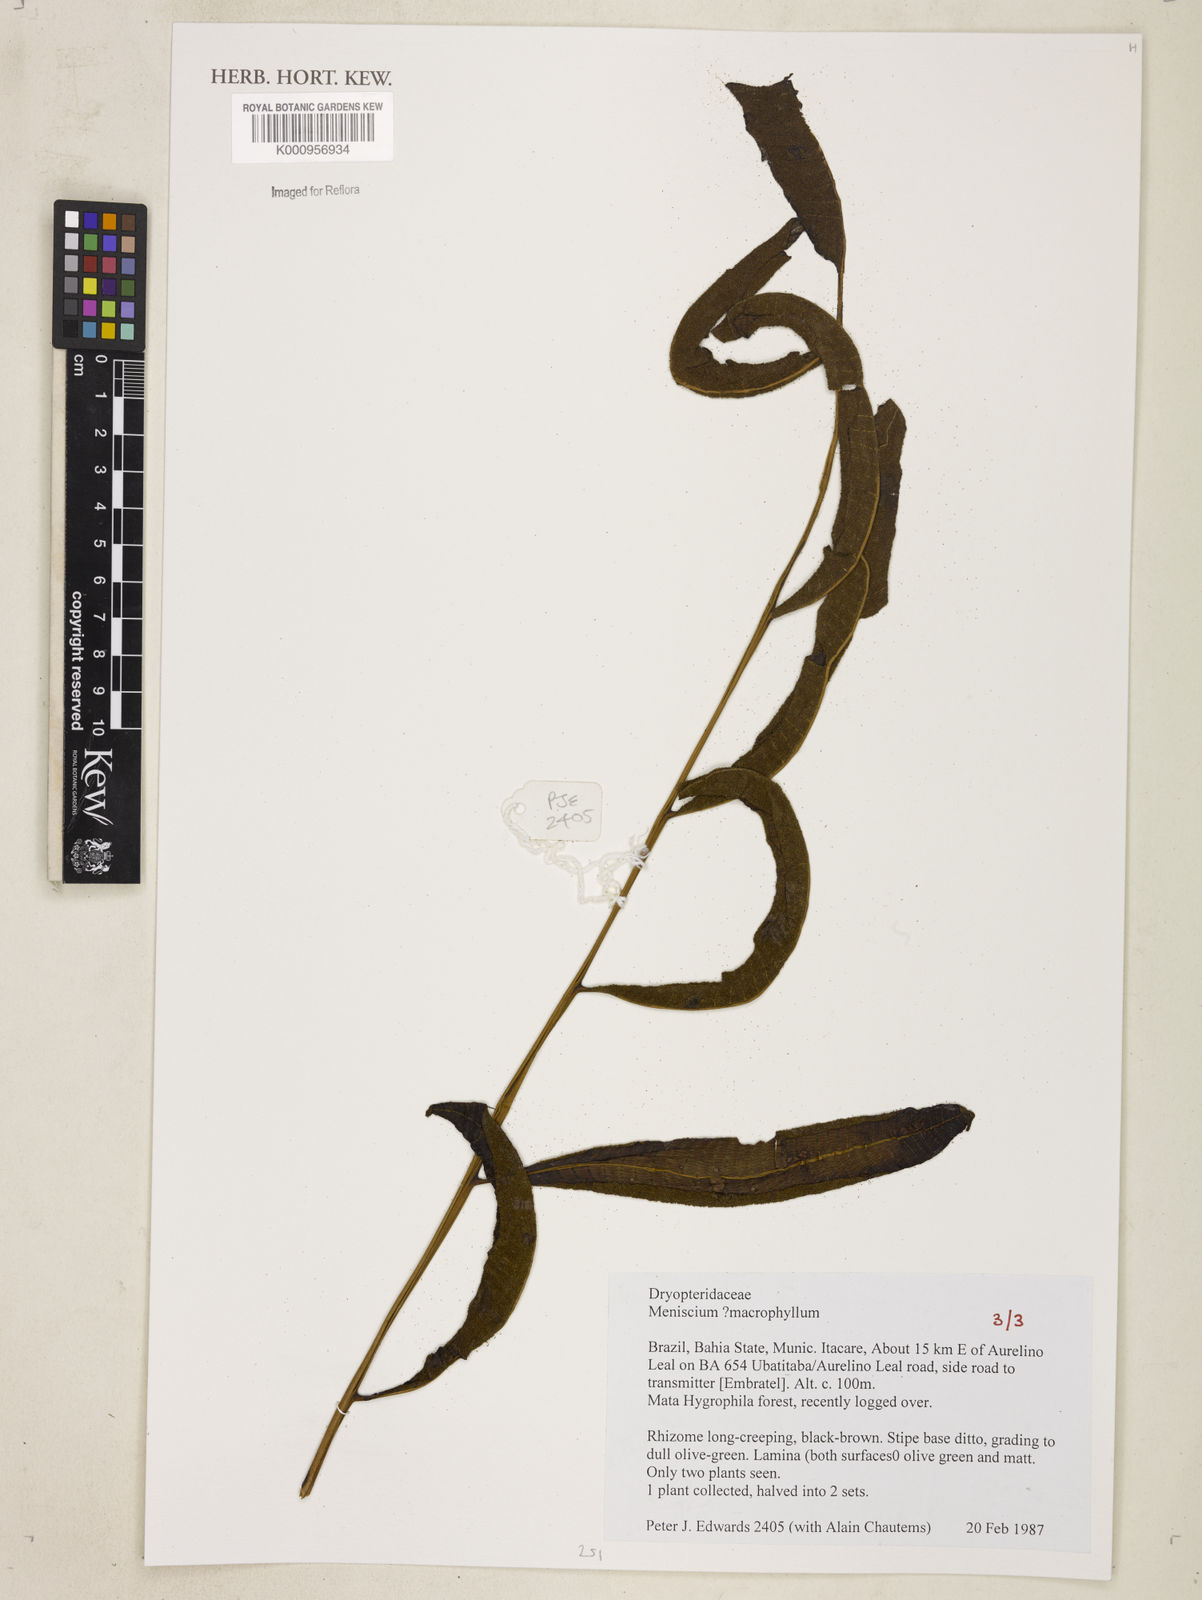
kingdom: Plantae
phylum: Tracheophyta
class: Polypodiopsida
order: Polypodiales
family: Thelypteridaceae
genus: Meniscium
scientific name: Meniscium macrophyllum
